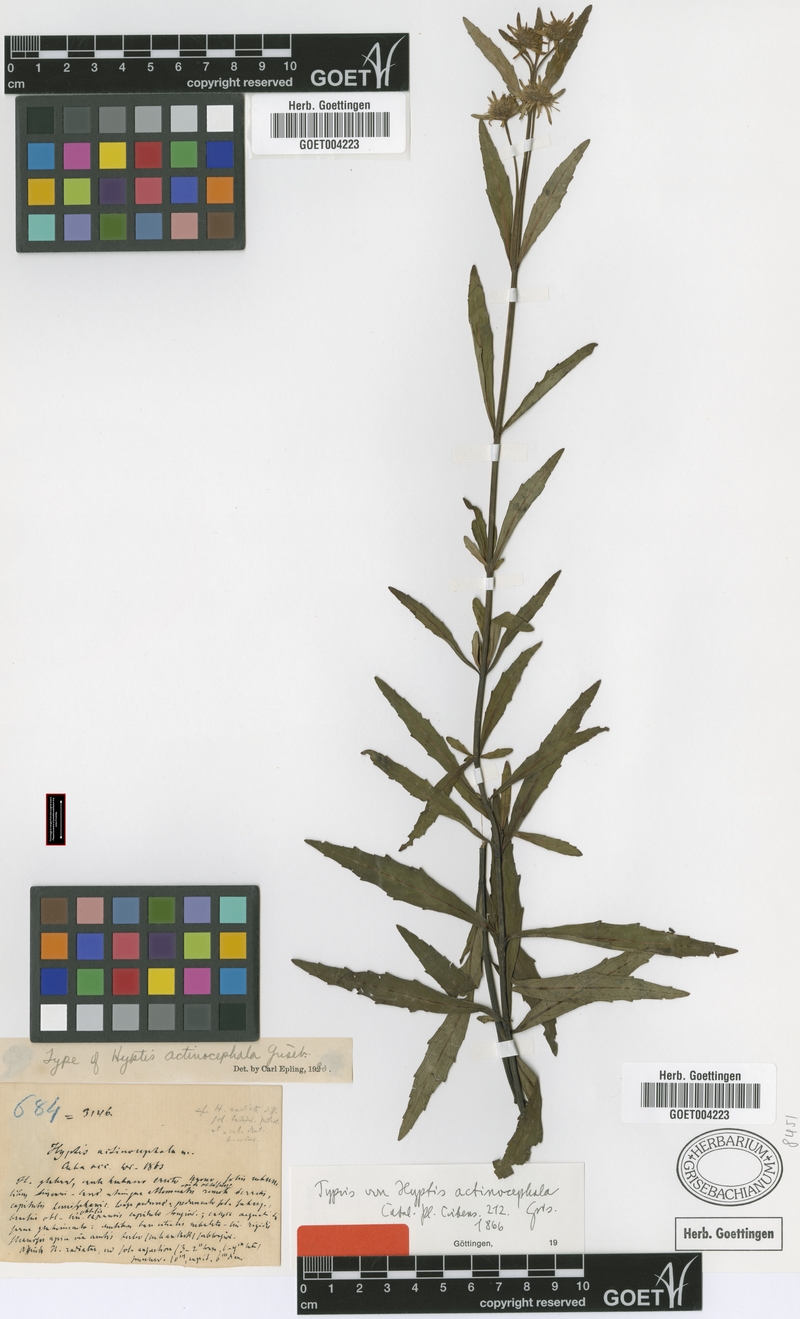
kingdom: Plantae
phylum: Tracheophyta
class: Magnoliopsida
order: Lamiales
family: Lamiaceae
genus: Hyptis
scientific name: Hyptis actinocephala
